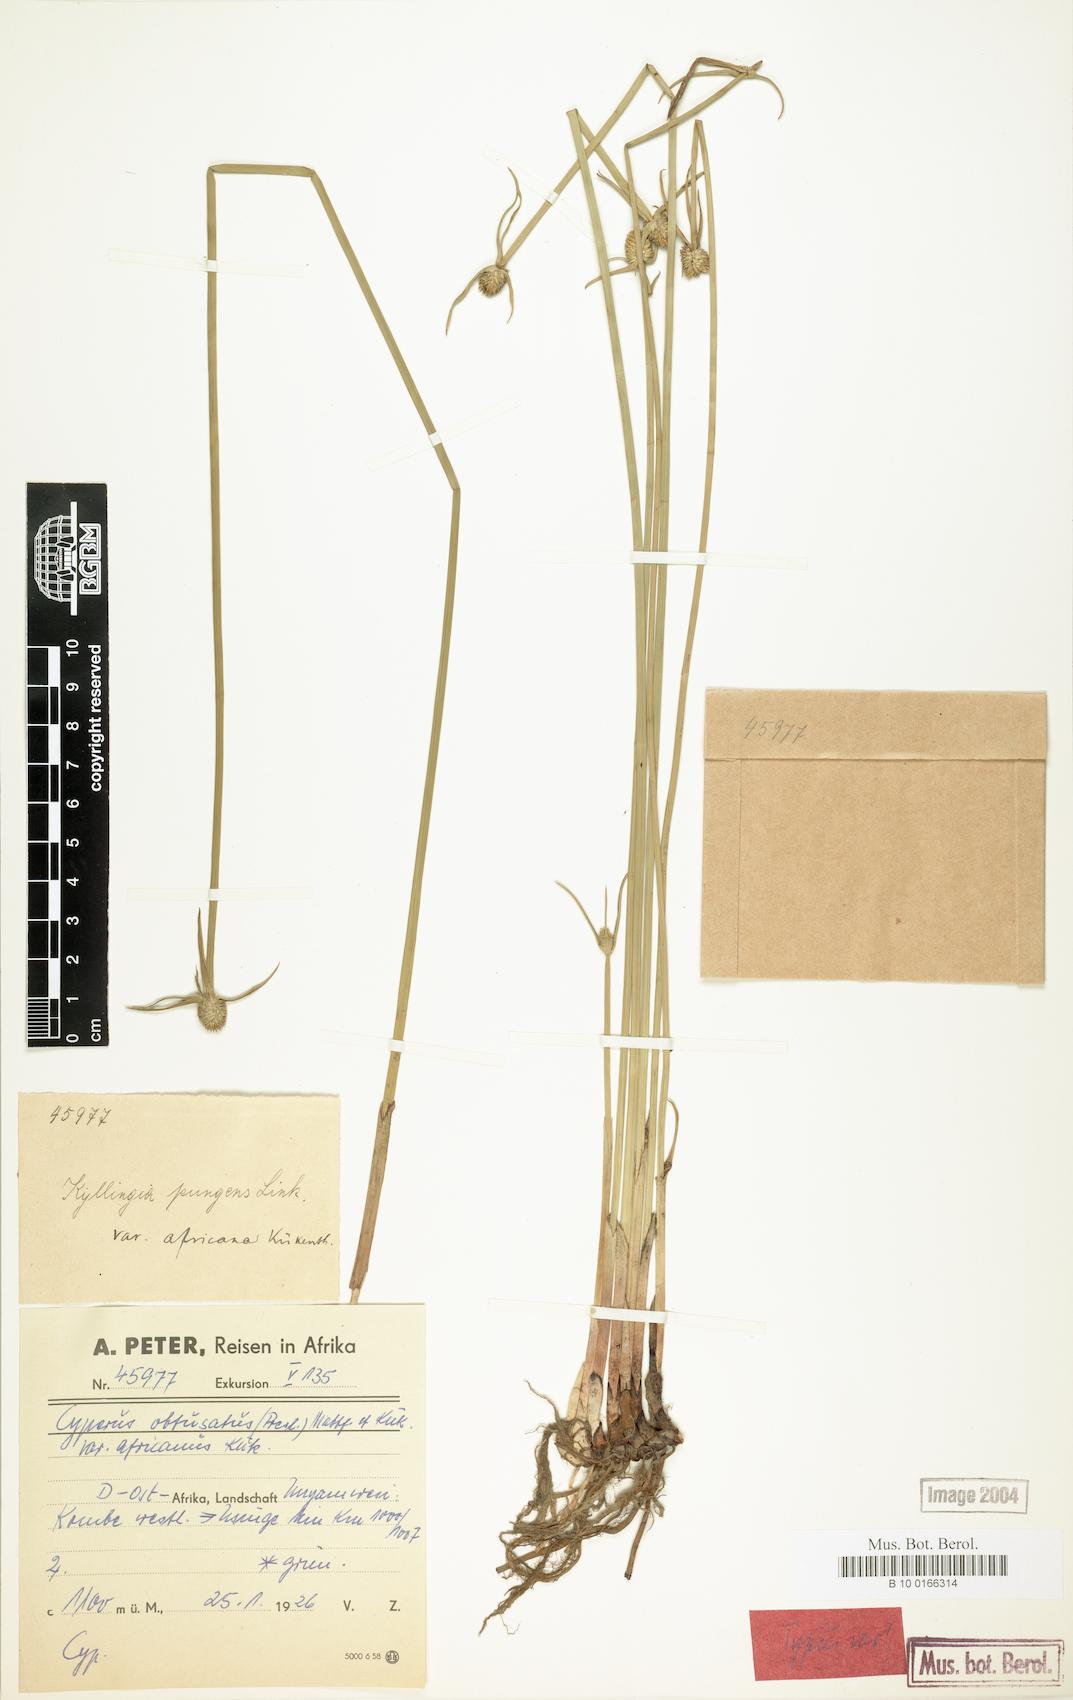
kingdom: Plantae
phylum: Tracheophyta
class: Liliopsida
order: Poales
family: Cyperaceae
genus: Cyperus
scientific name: Cyperus obtusatus
